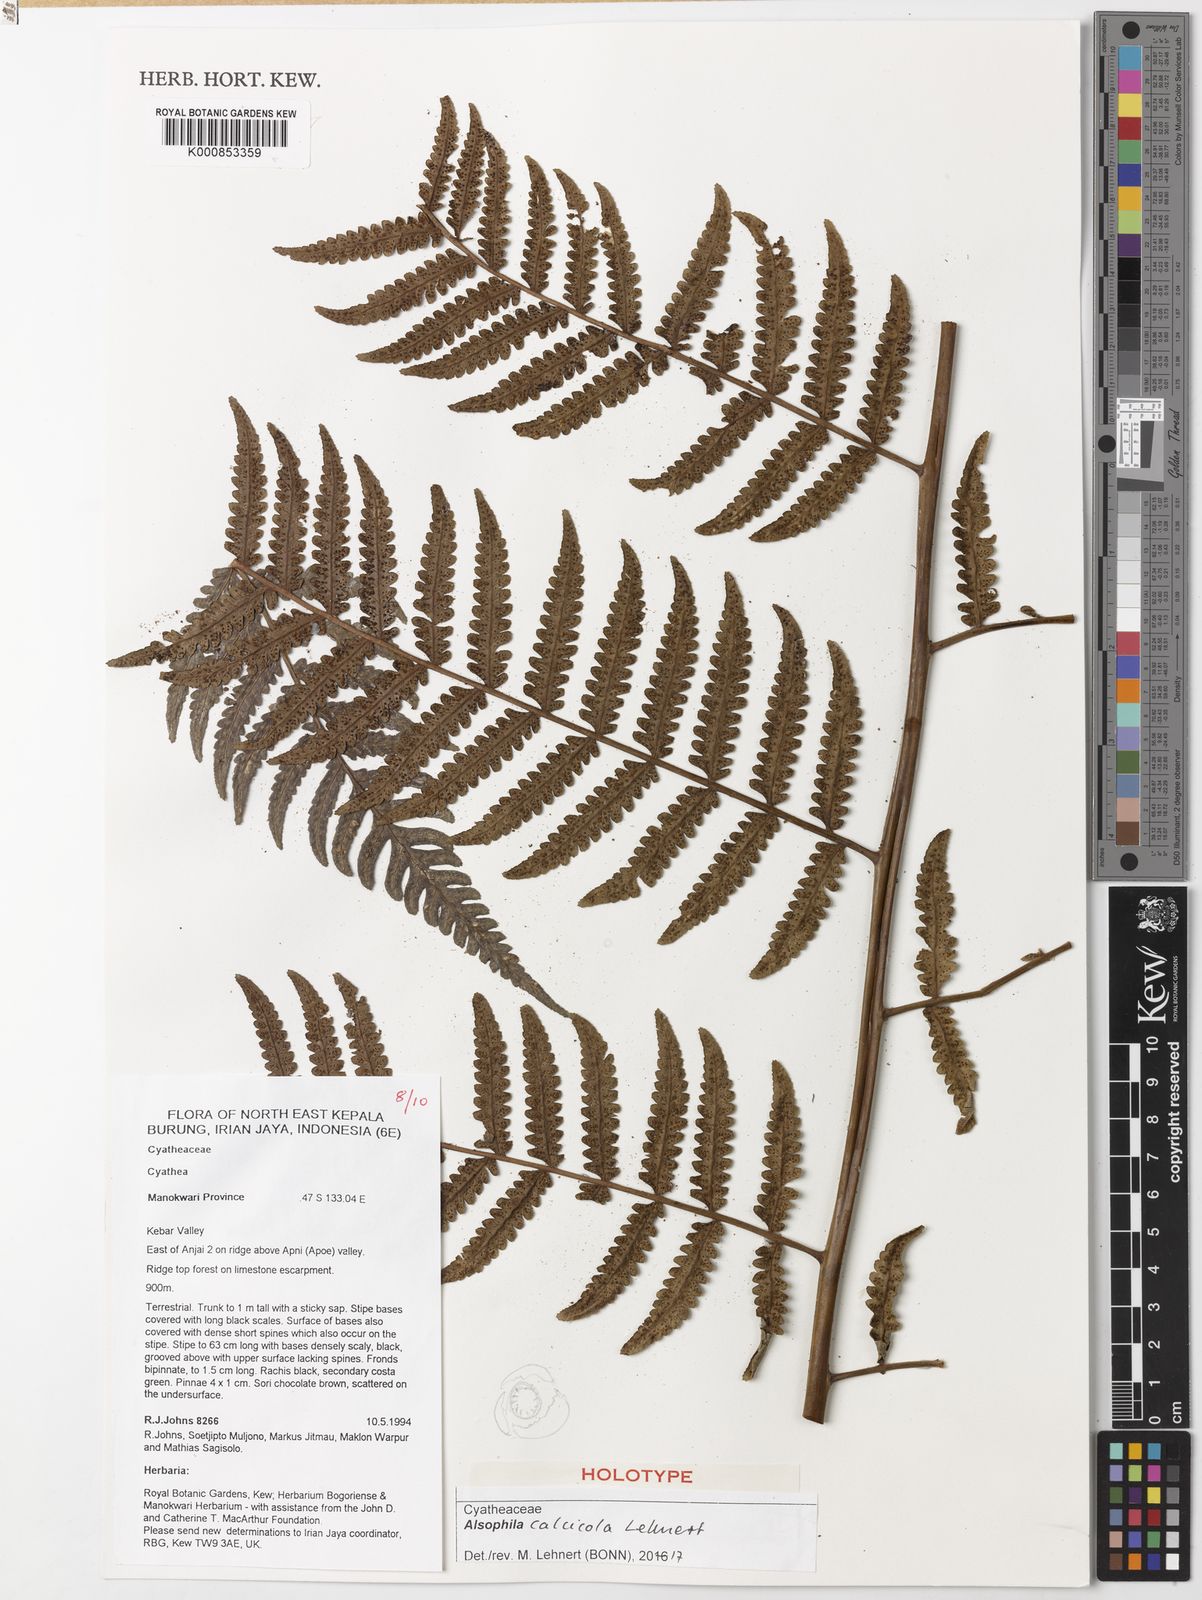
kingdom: Plantae
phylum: Tracheophyta
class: Polypodiopsida
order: Cyatheales
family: Cyatheaceae
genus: Alsophila
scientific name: Alsophila calcicola
